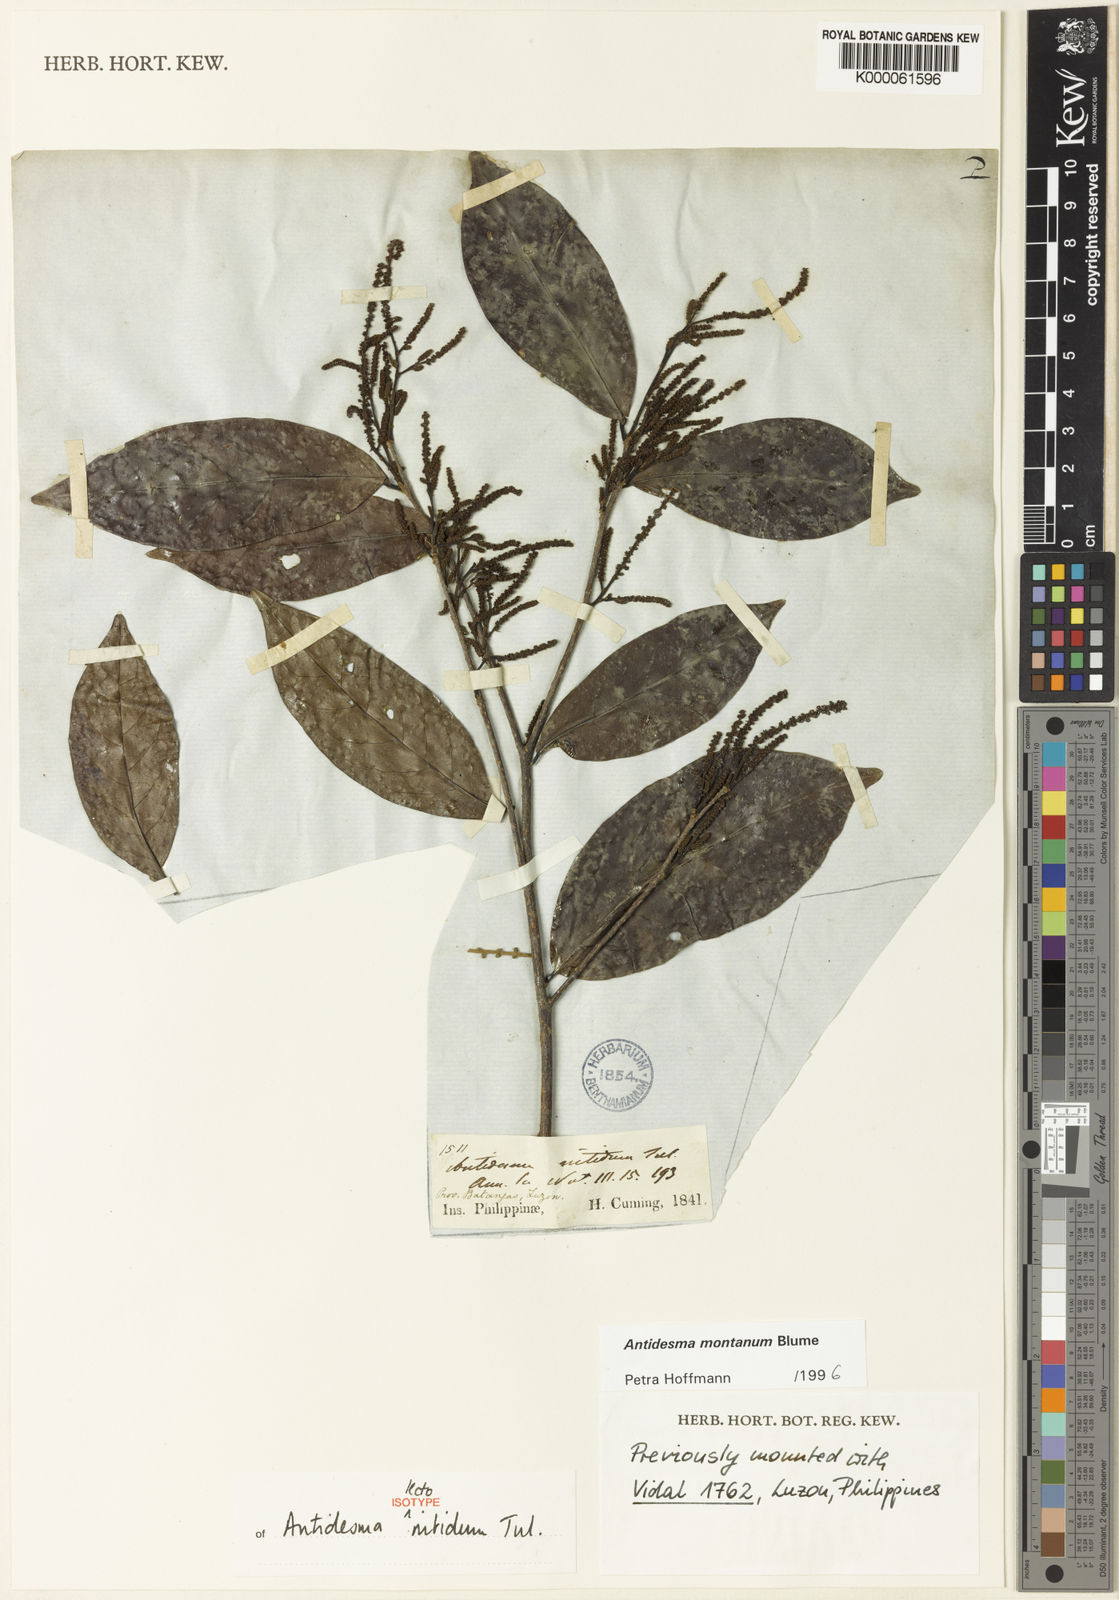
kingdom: Plantae
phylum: Tracheophyta
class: Magnoliopsida
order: Malpighiales
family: Phyllanthaceae
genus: Antidesma
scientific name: Antidesma montanum
